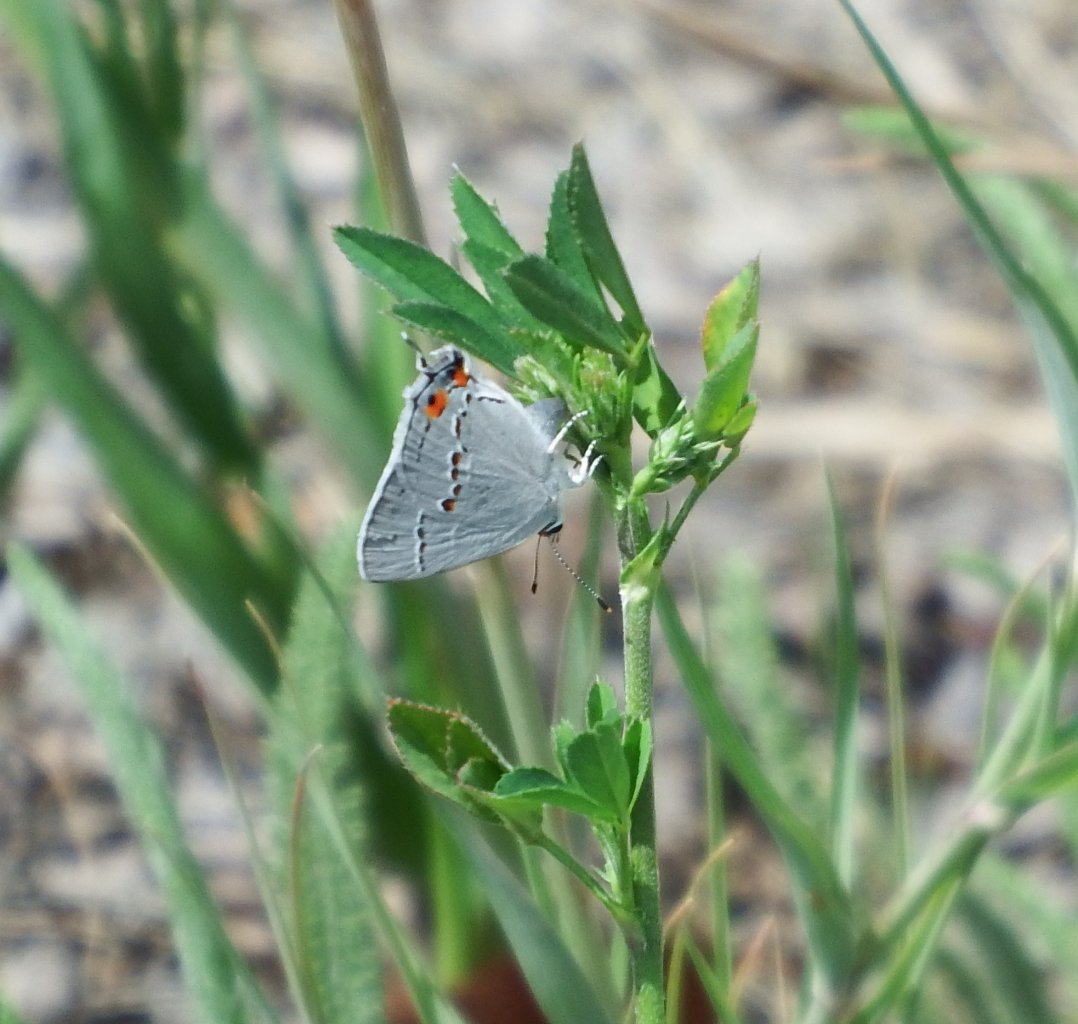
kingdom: Animalia
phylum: Arthropoda
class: Insecta
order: Lepidoptera
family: Lycaenidae
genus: Strymon
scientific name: Strymon melinus
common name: Gray Hairstreak
